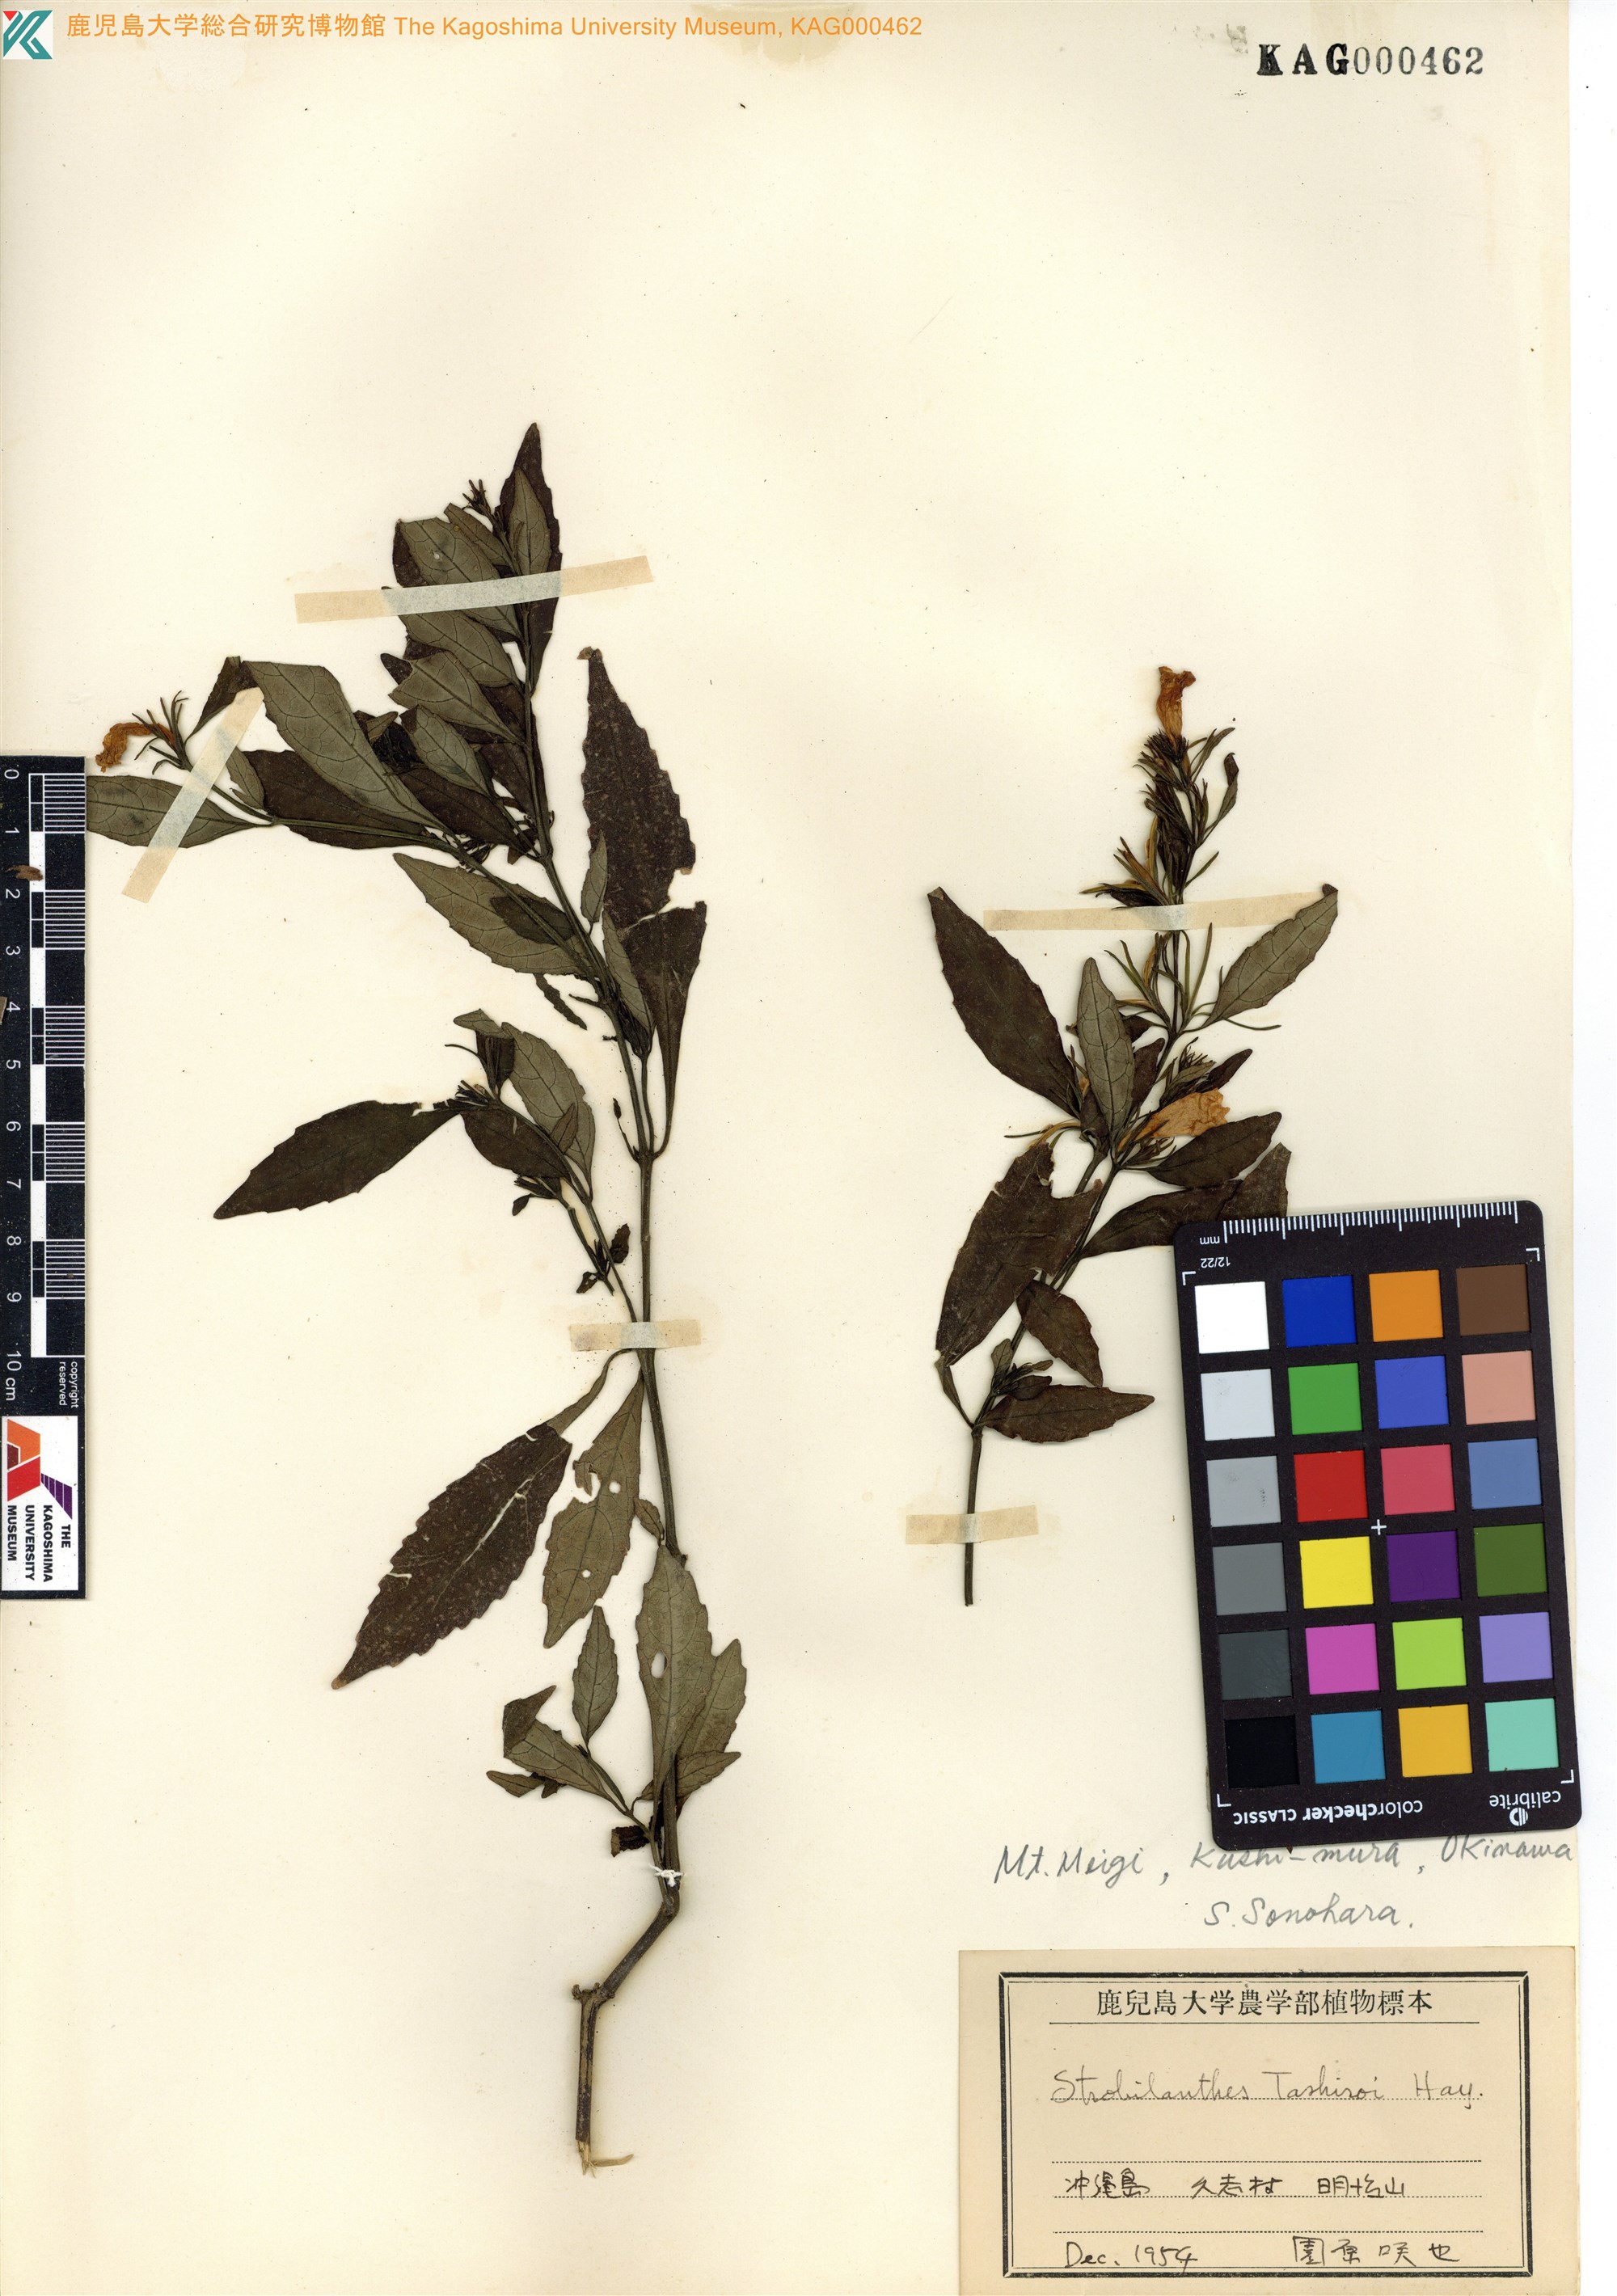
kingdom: Plantae
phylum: Tracheophyta
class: Magnoliopsida
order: Lamiales
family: Acanthaceae
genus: Strobilanthes
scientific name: Strobilanthes flexicaulis
